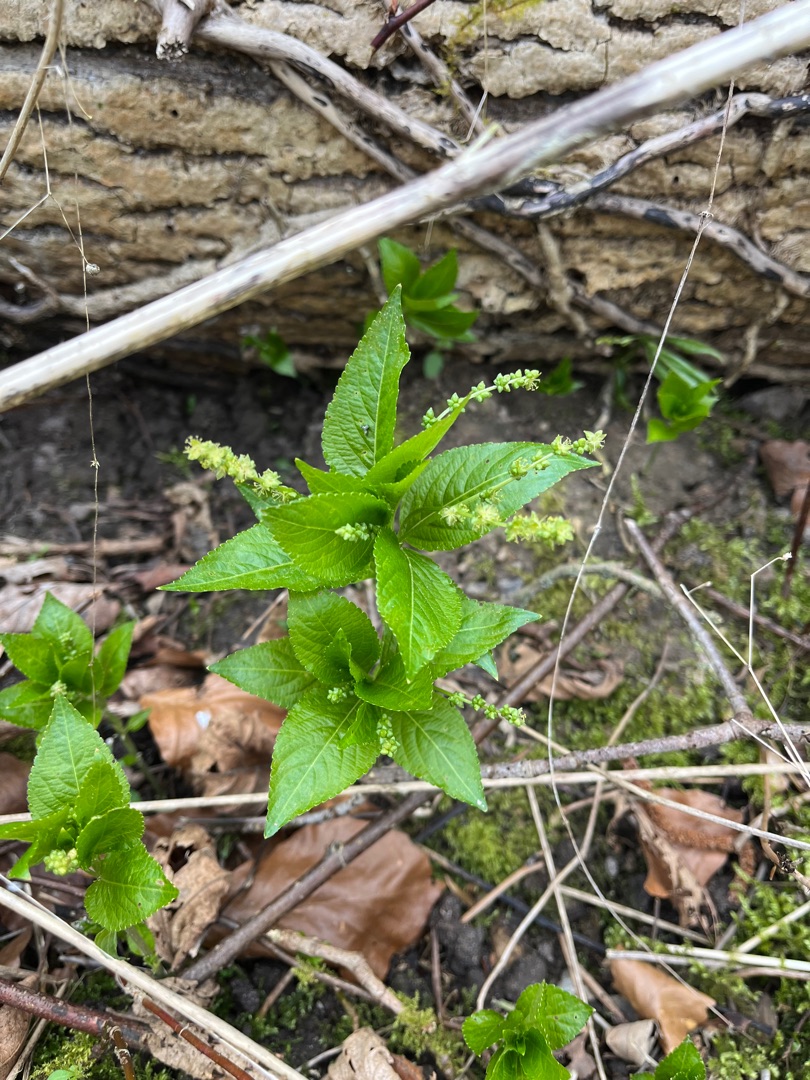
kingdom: Plantae
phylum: Tracheophyta
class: Magnoliopsida
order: Malpighiales
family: Euphorbiaceae
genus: Mercurialis
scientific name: Mercurialis perennis
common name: Almindelig bingelurt
